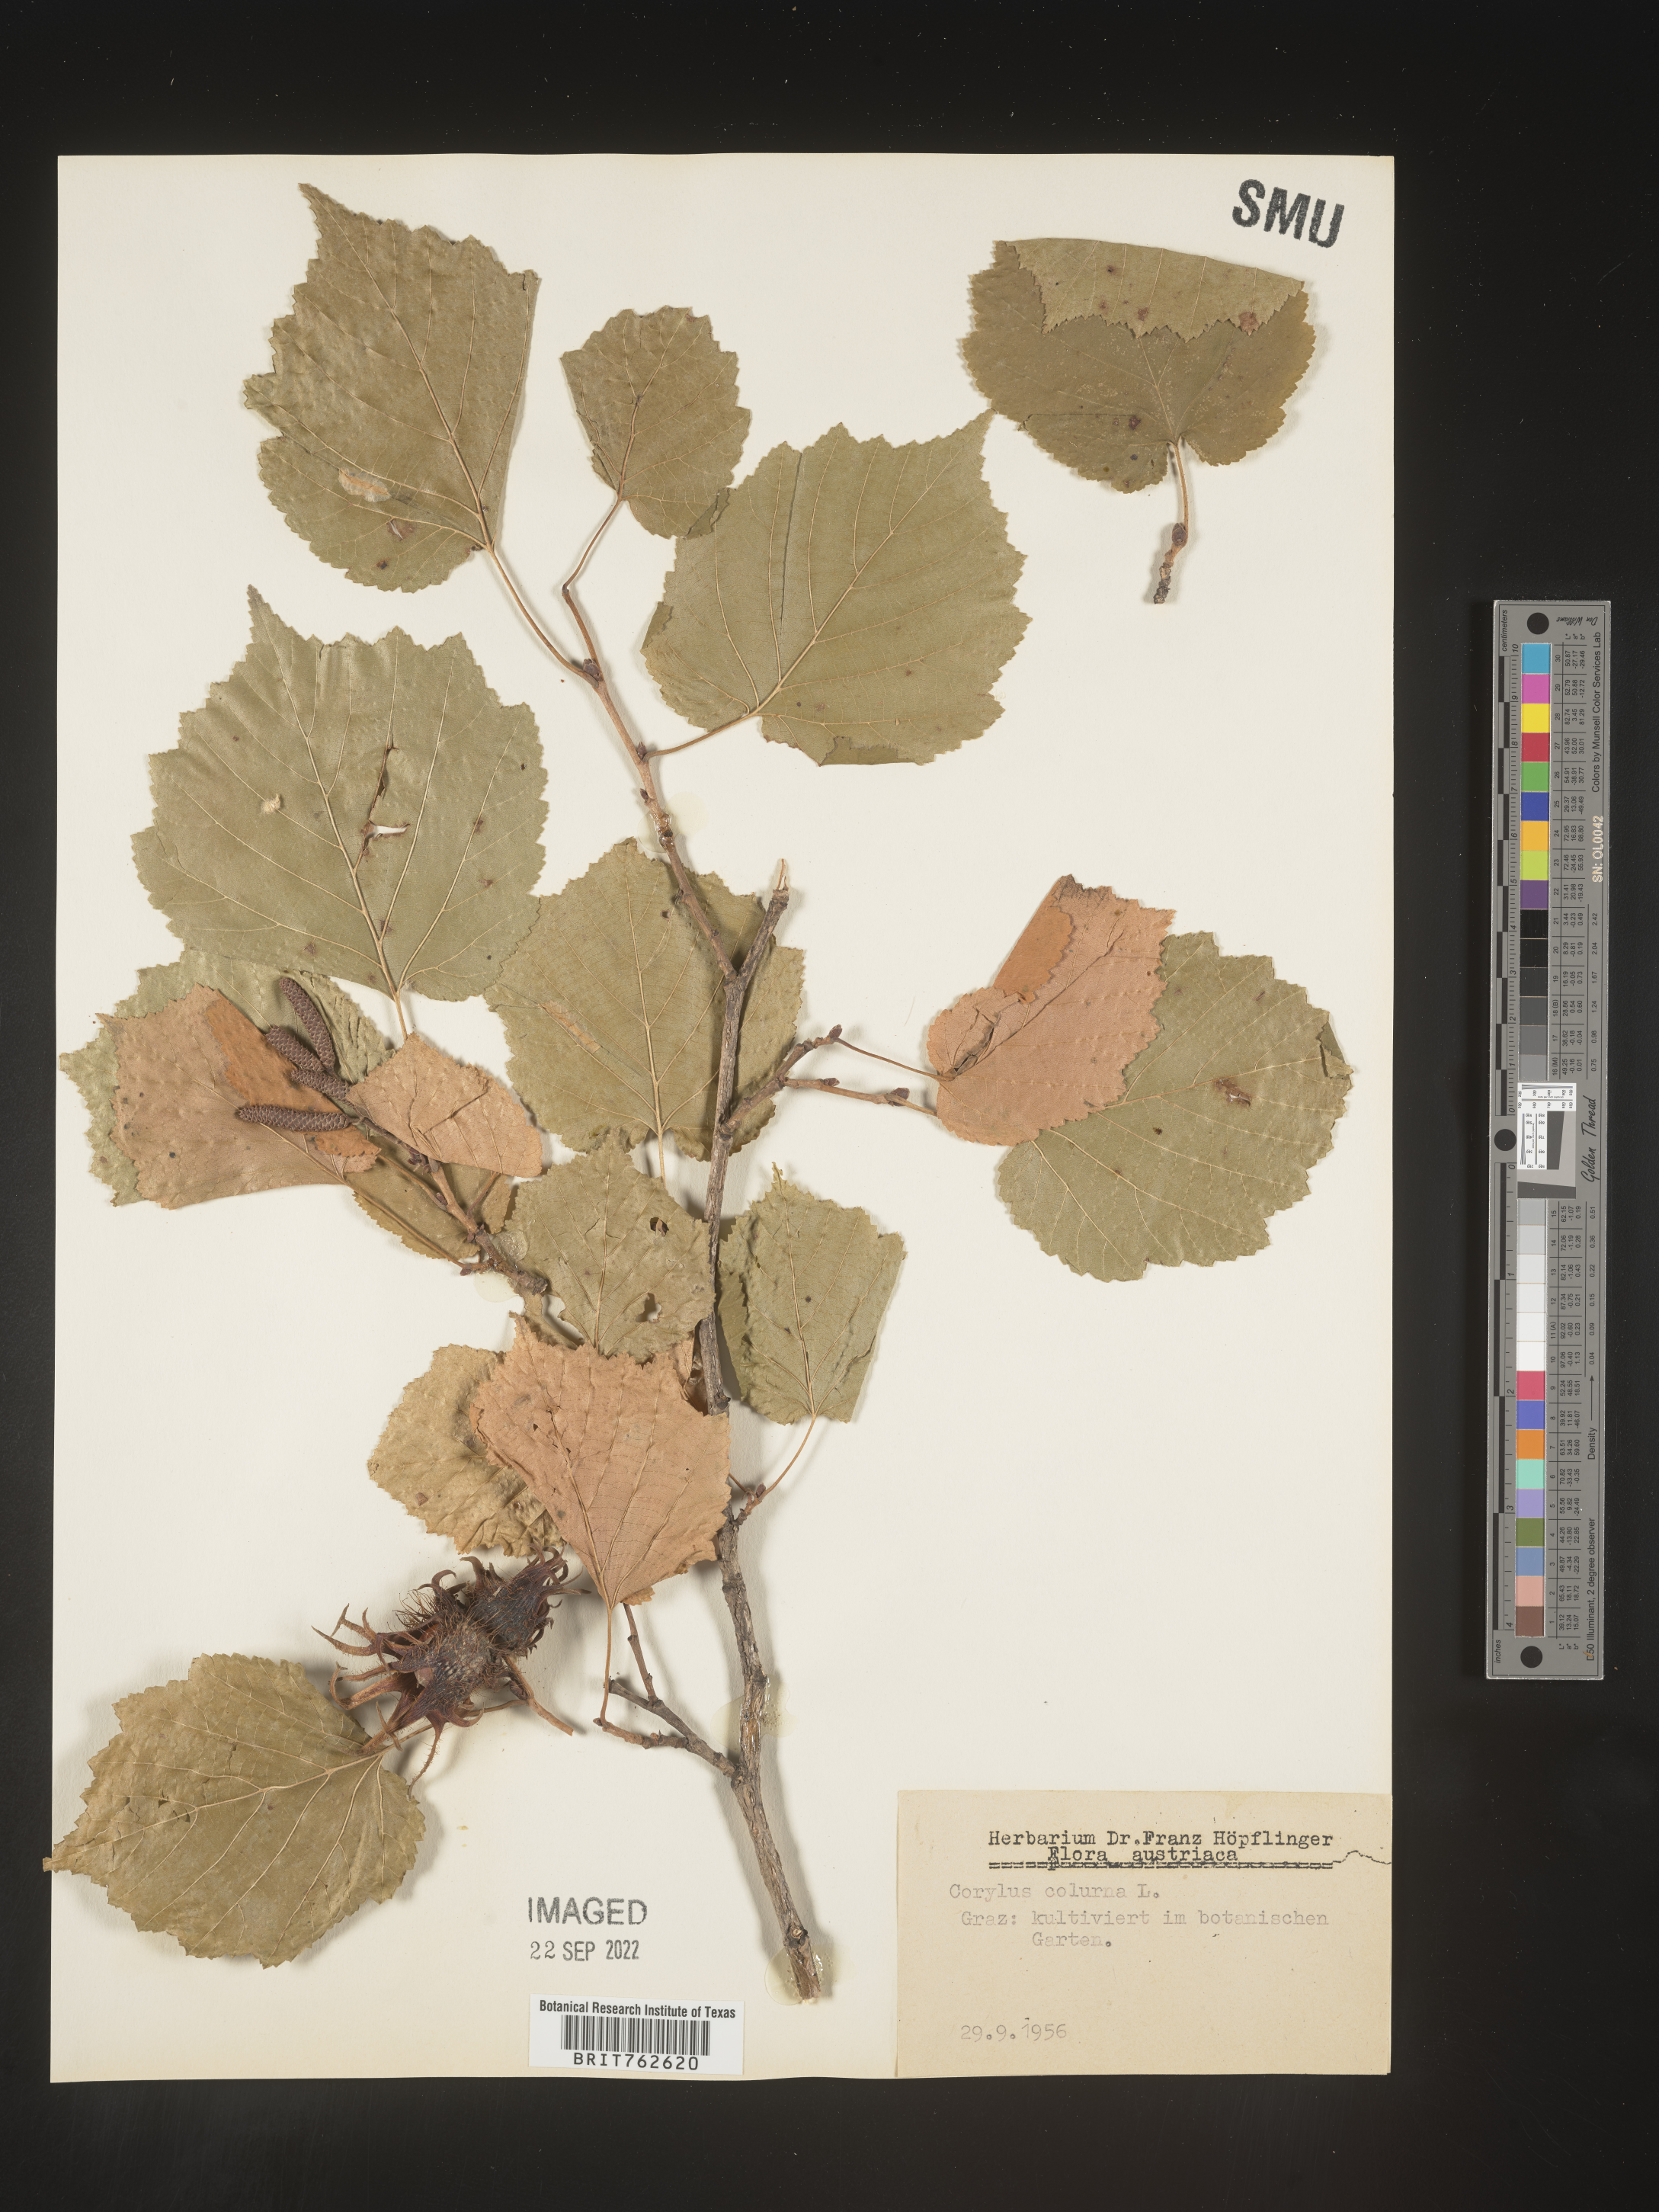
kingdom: Plantae
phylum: Tracheophyta
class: Magnoliopsida
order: Fagales
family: Betulaceae
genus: Corylus
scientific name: Corylus
